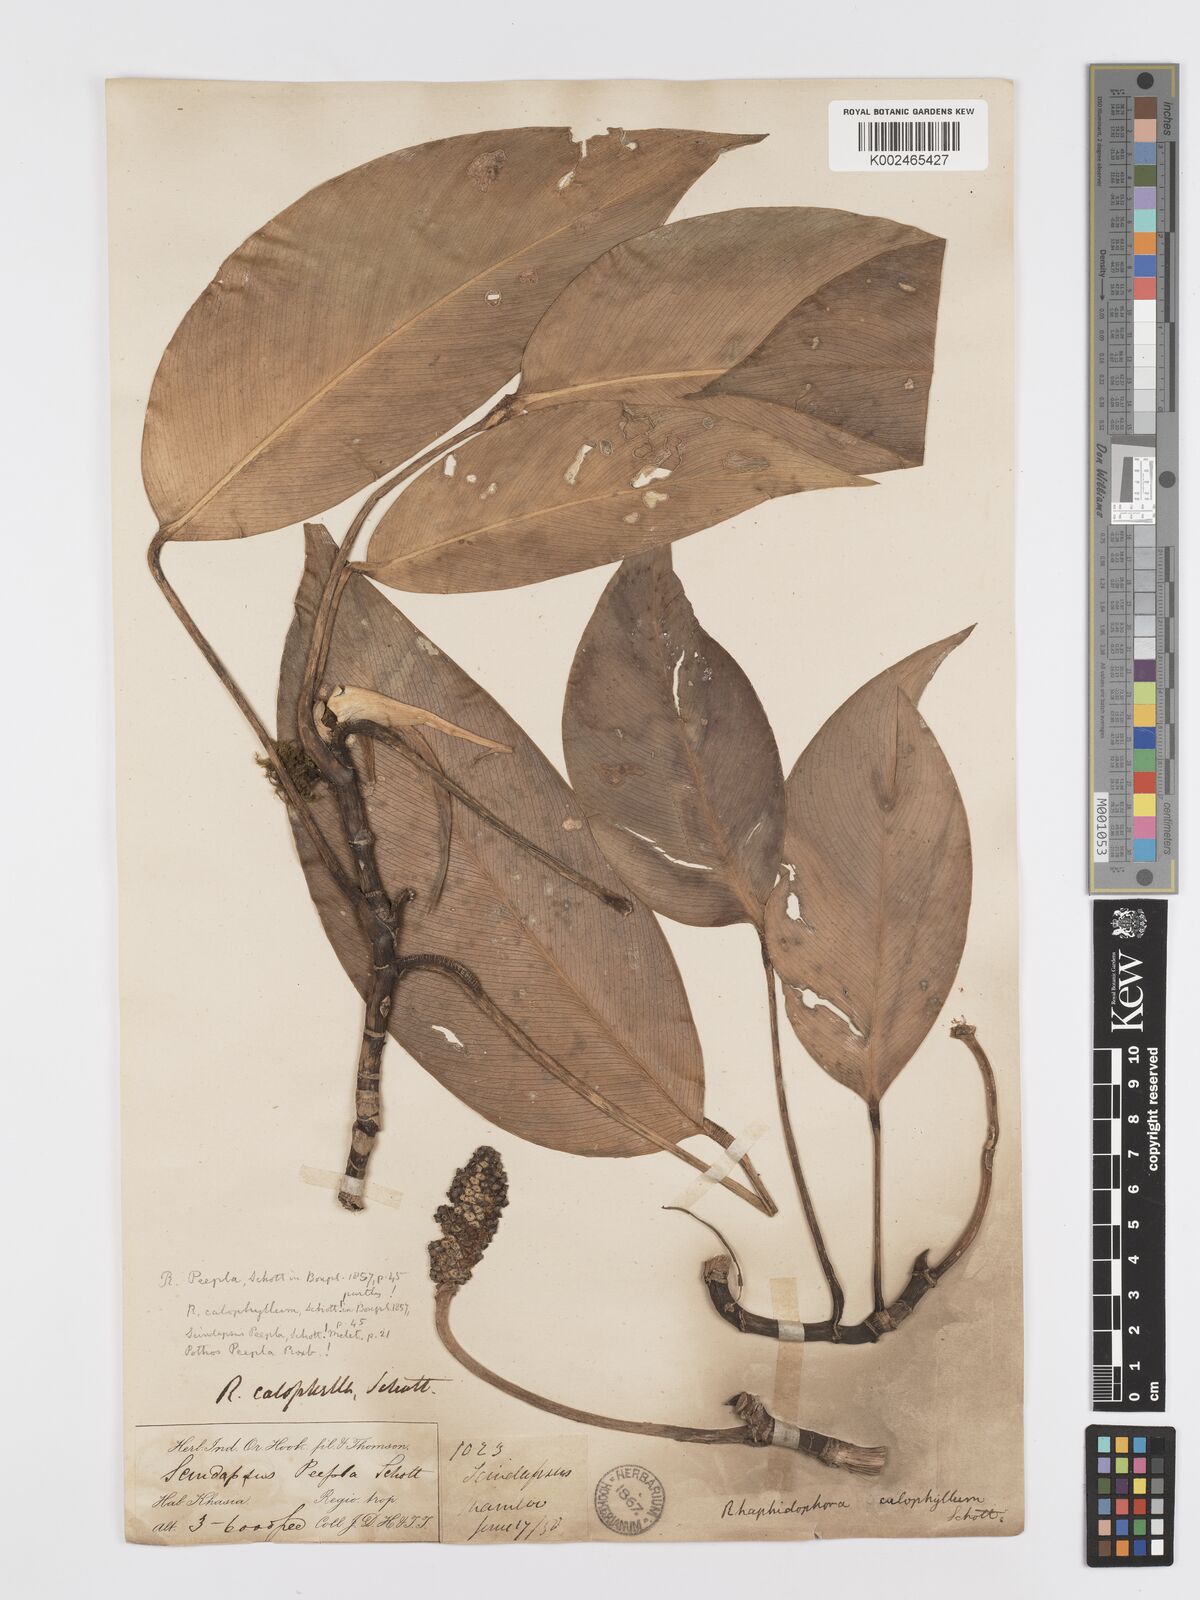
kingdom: Plantae
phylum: Tracheophyta
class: Liliopsida
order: Alismatales
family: Araceae
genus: Rhaphidophora
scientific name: Rhaphidophora calophylla
